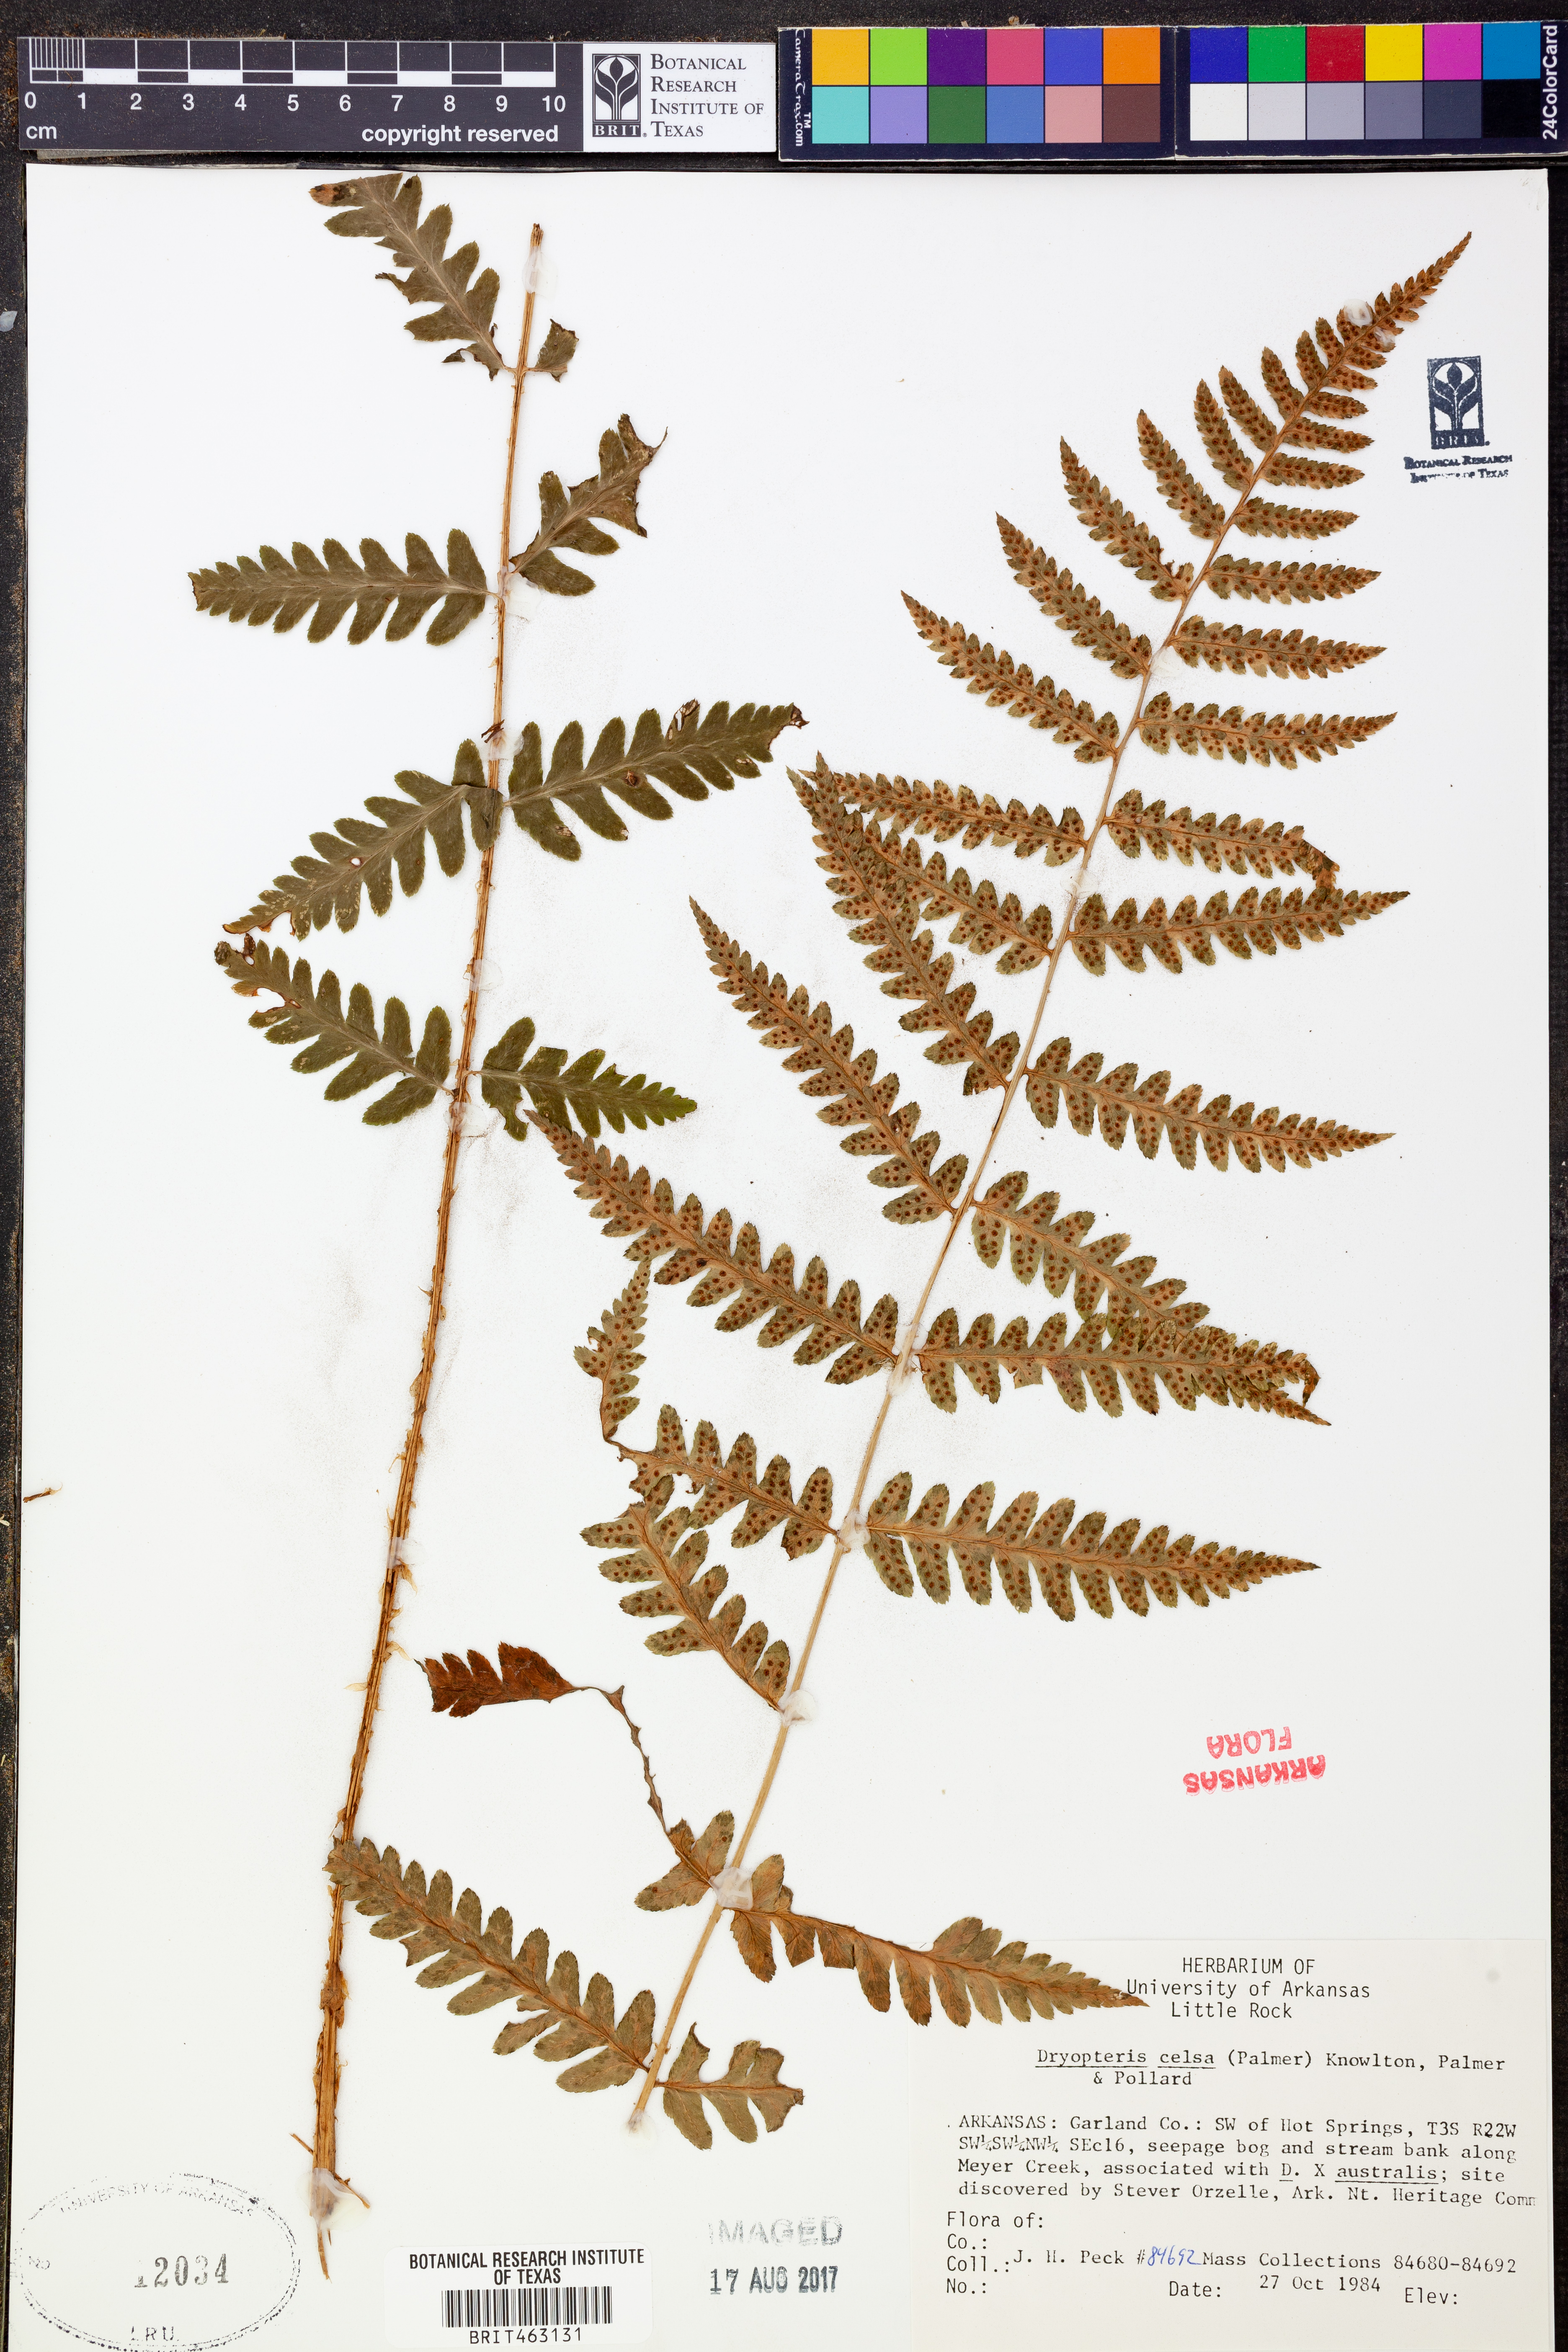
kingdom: Plantae
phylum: Tracheophyta
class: Polypodiopsida
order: Polypodiales
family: Dryopteridaceae
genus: Dryopteris
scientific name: Dryopteris celsa
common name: Log fern
